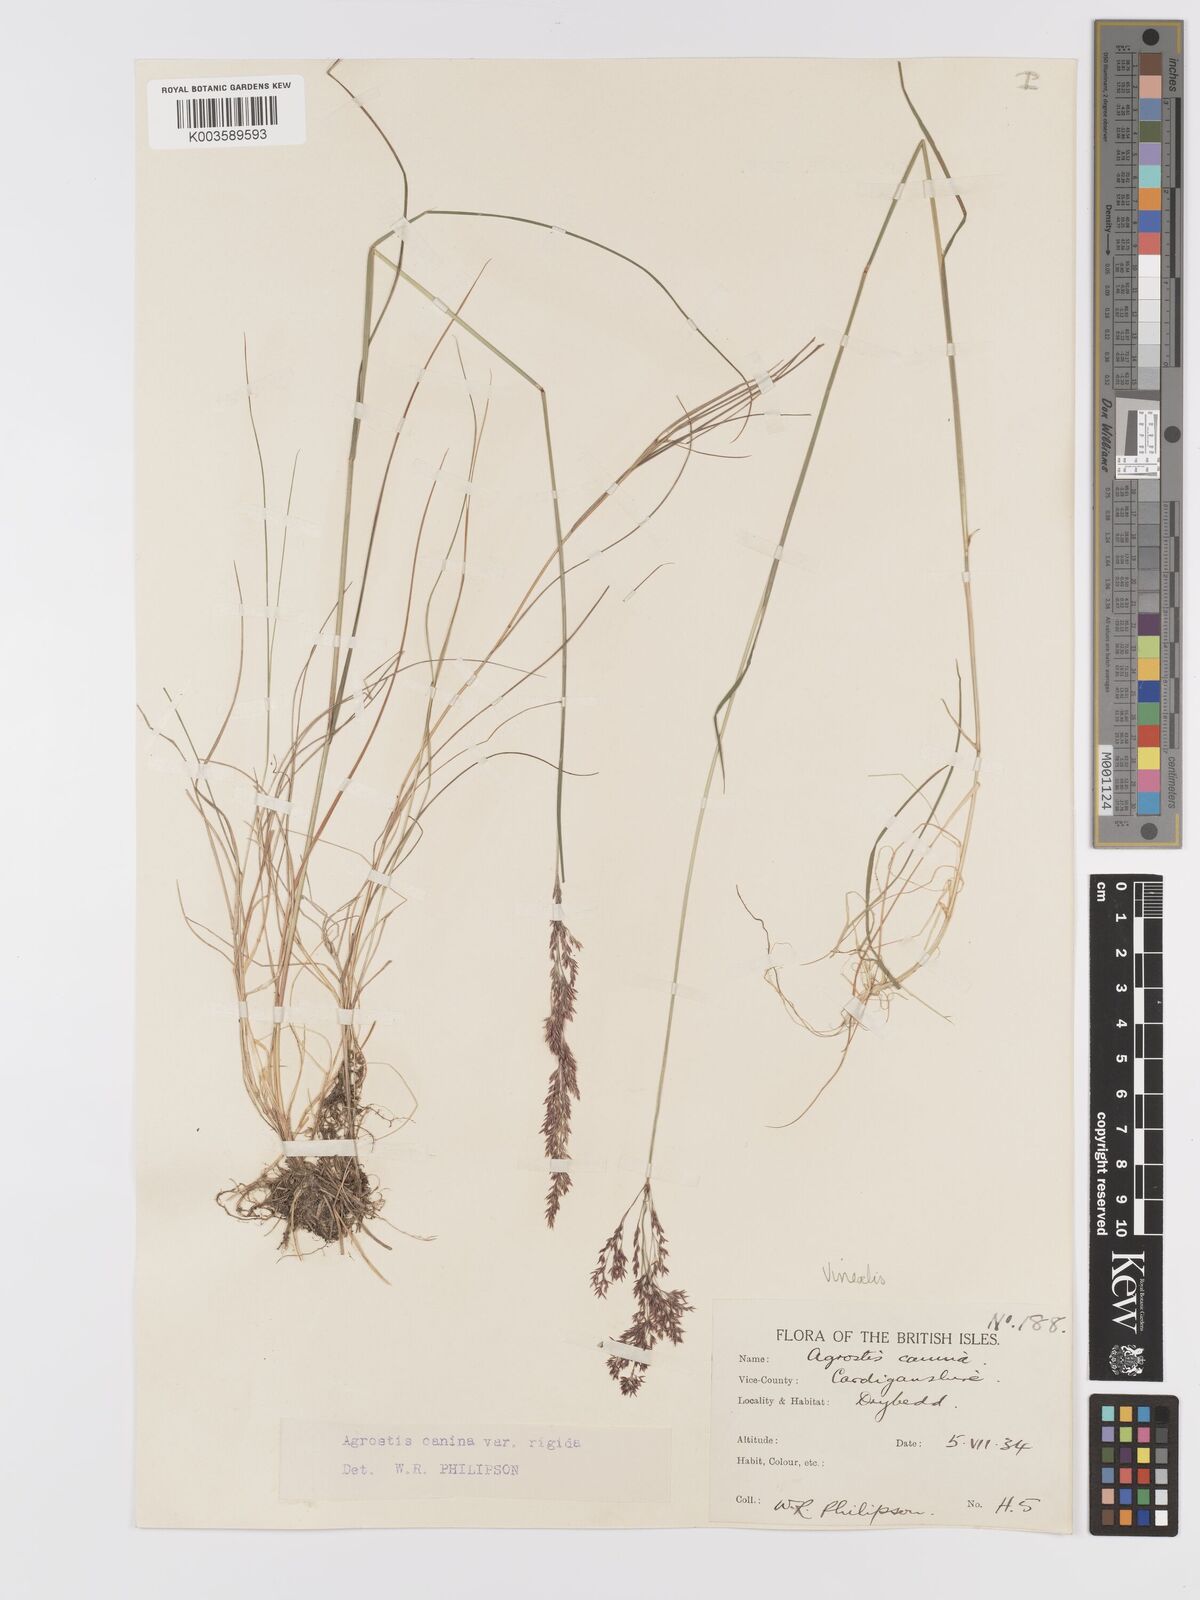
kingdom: Plantae
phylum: Tracheophyta
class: Liliopsida
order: Poales
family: Poaceae
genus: Agrostis
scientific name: Agrostis
